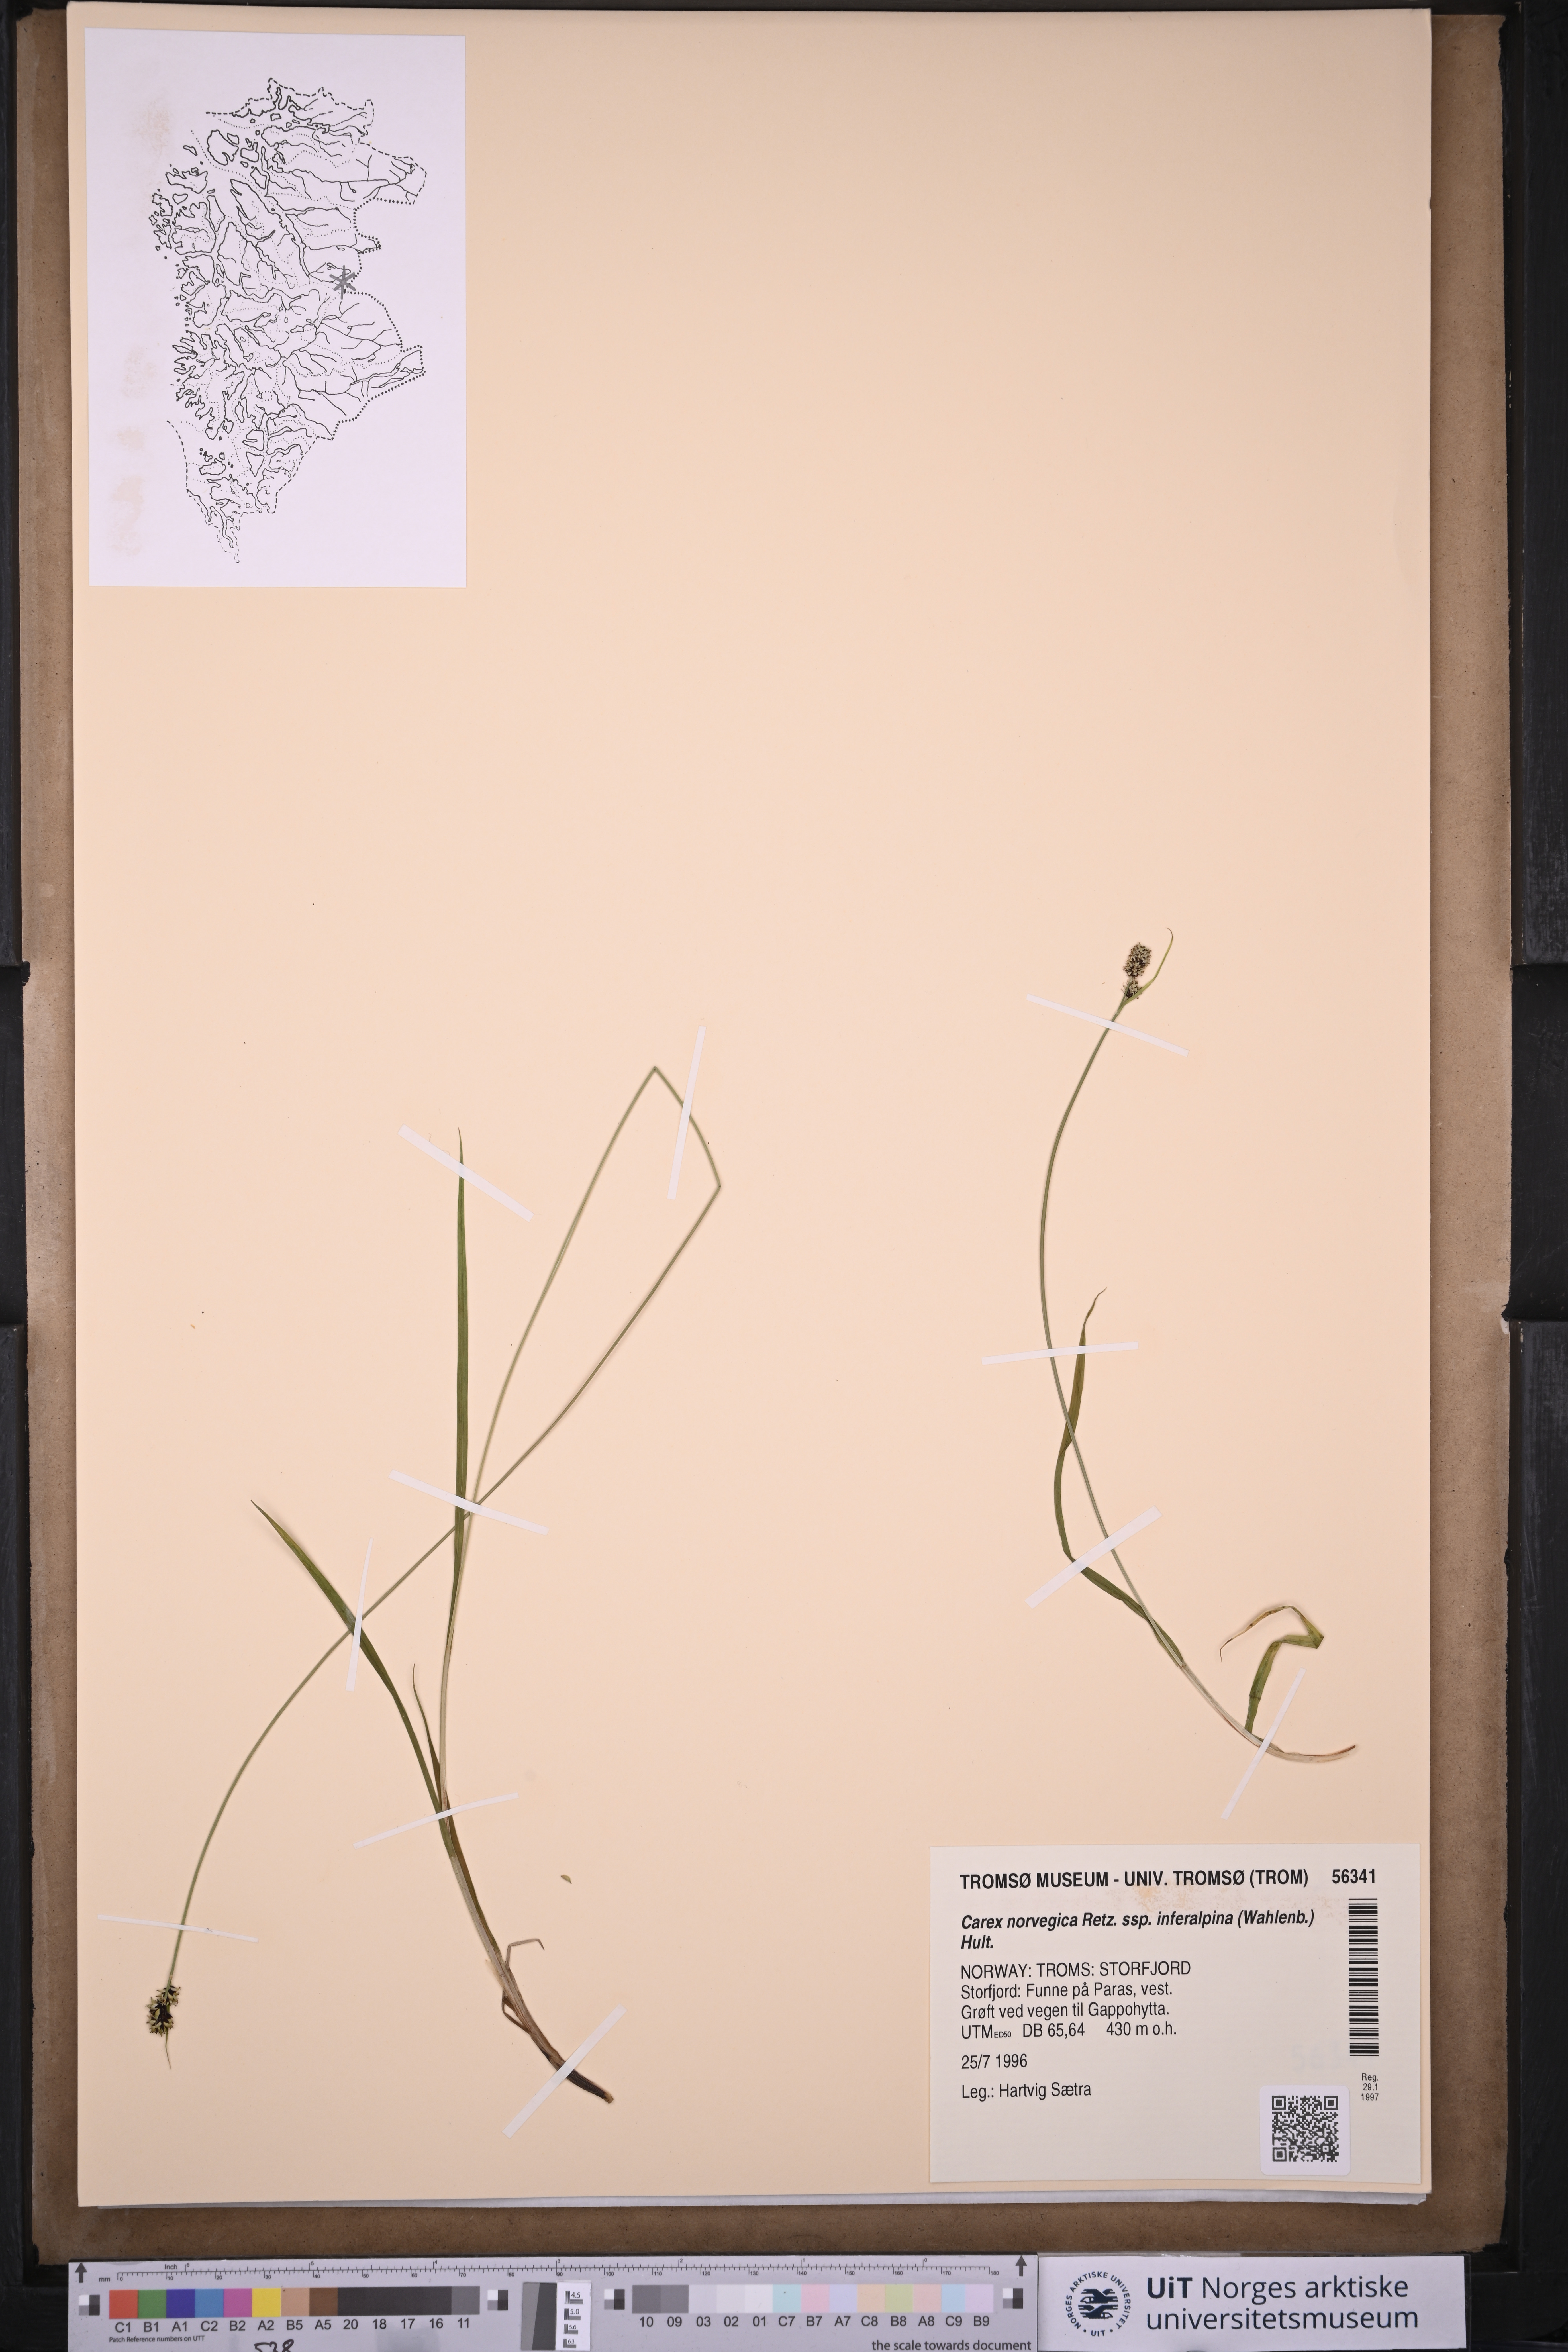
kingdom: Plantae
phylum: Tracheophyta
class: Liliopsida
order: Poales
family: Cyperaceae
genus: Carex
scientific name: Carex media
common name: Alpine sedge
